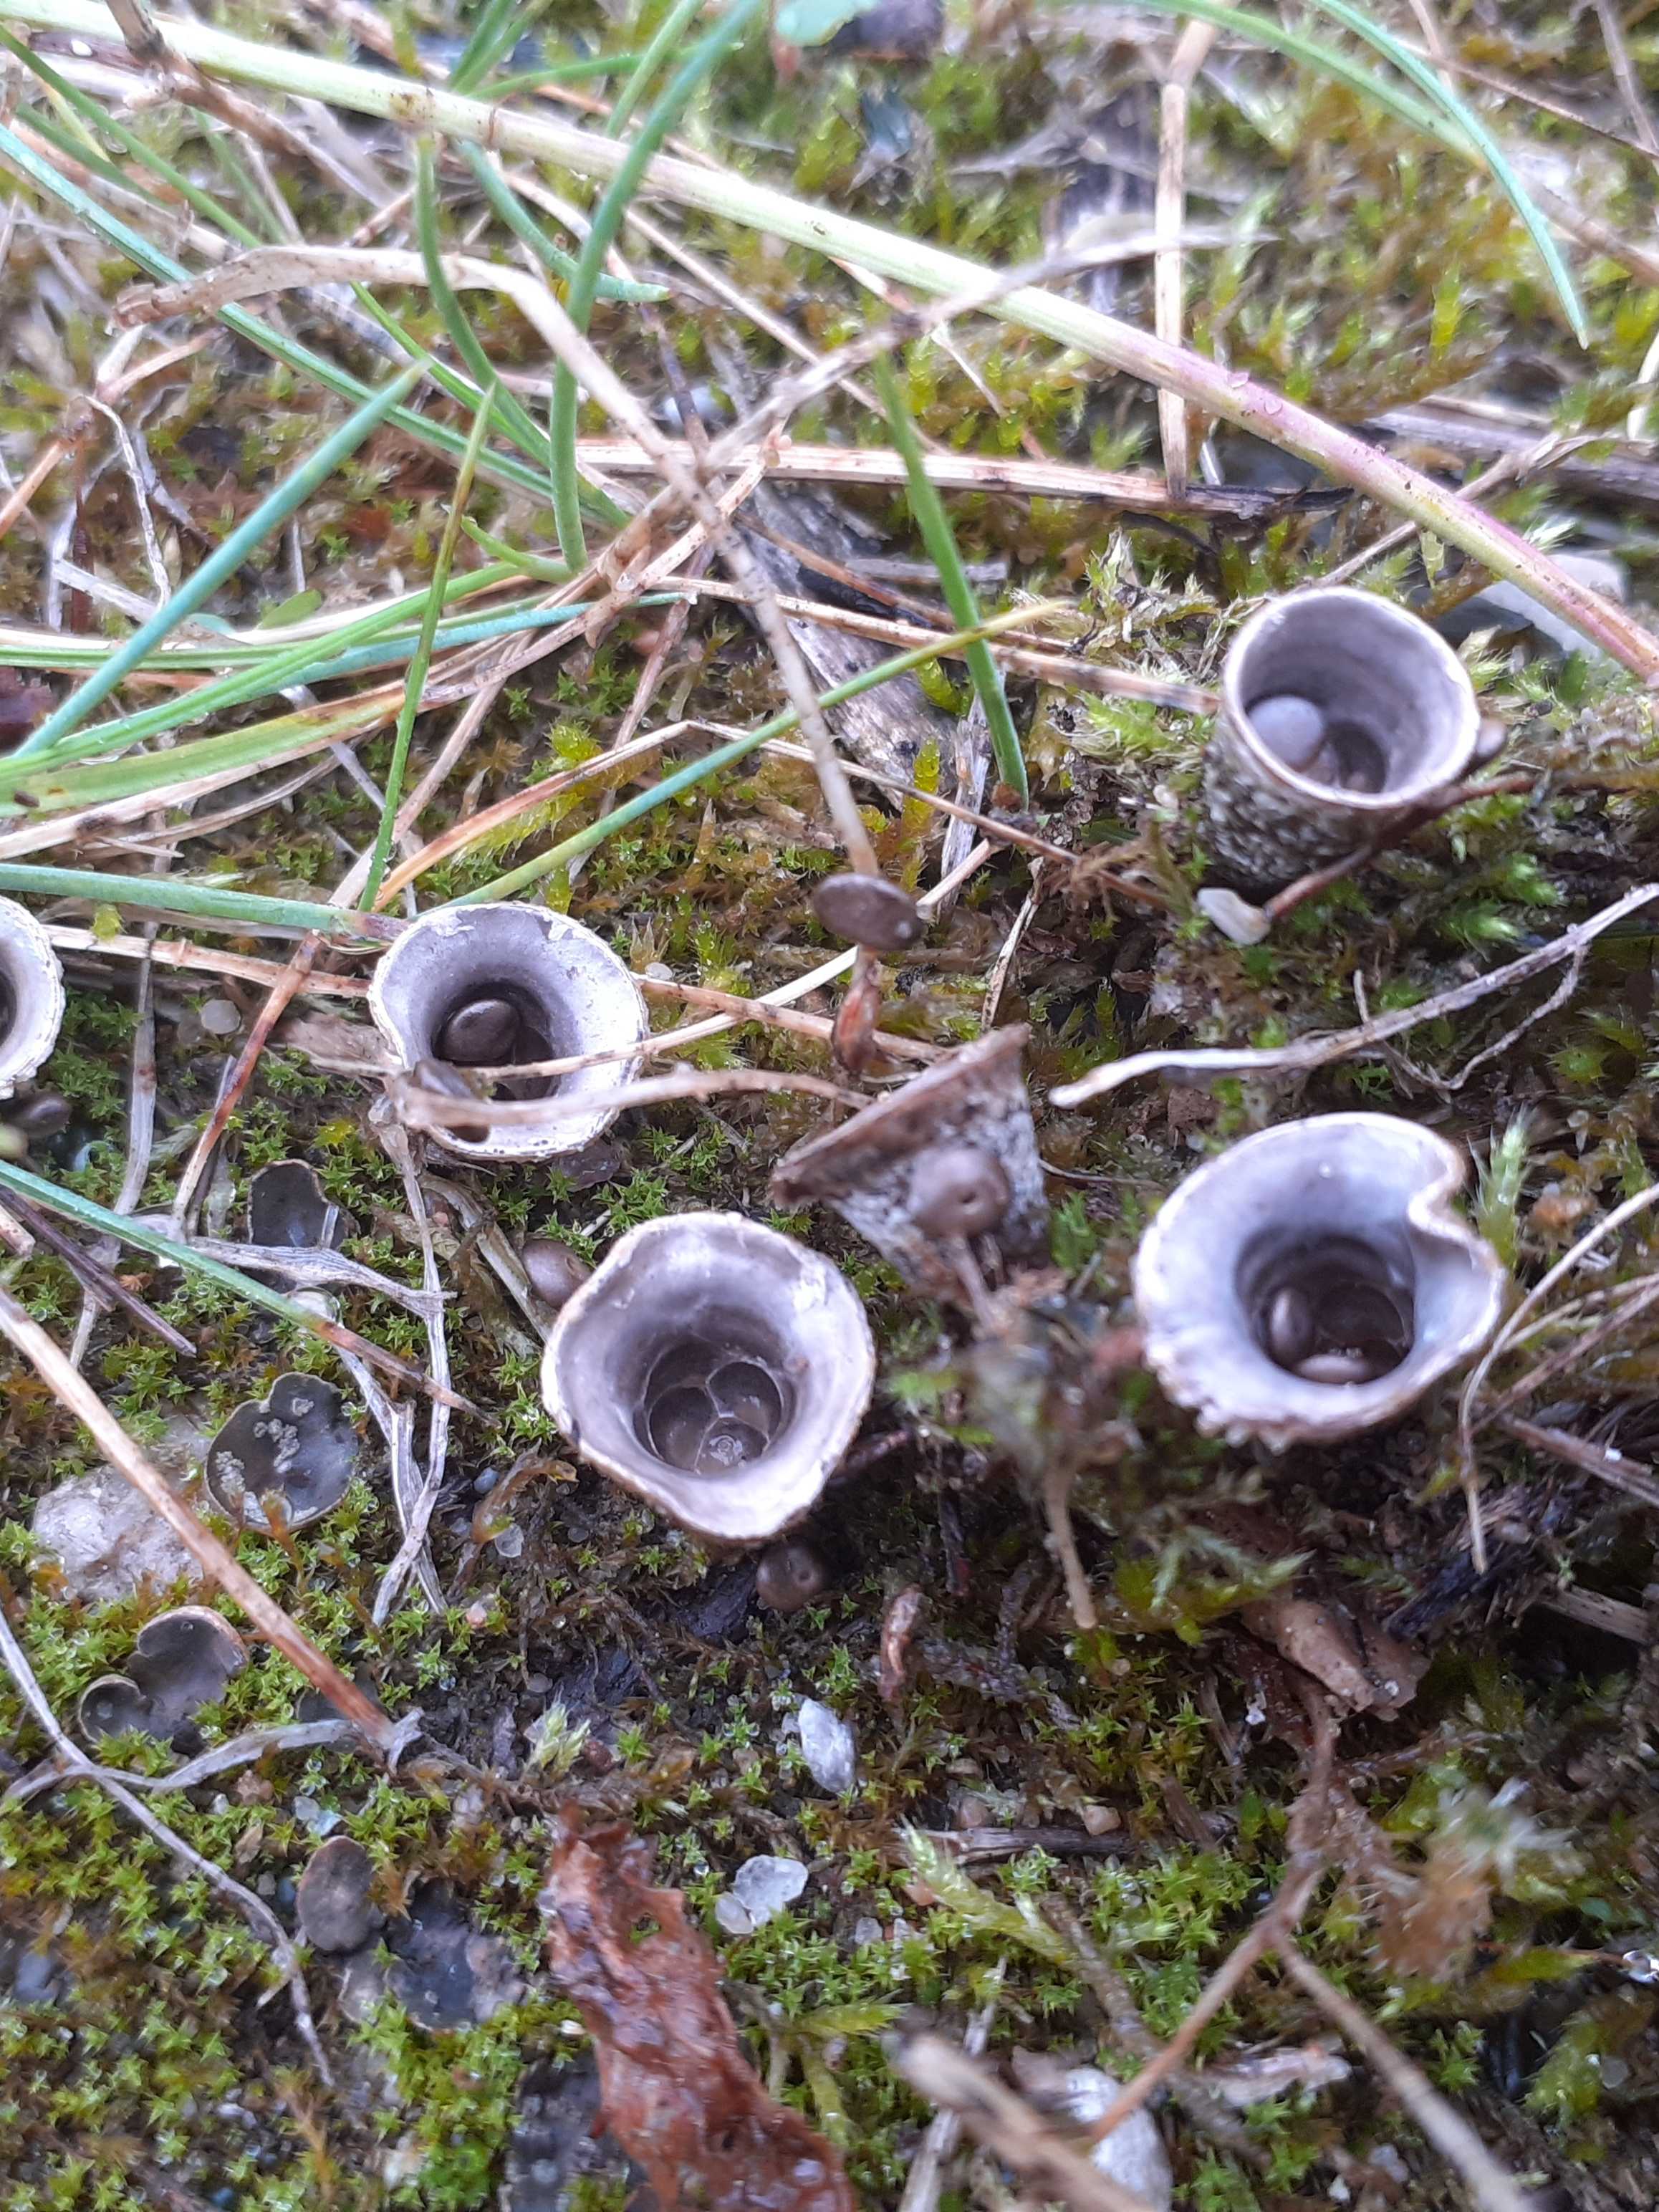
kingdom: Fungi
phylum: Basidiomycota
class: Agaricomycetes
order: Agaricales
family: Agaricaceae
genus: Cyathus
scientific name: Cyathus olla
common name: klokke-redesvamp
